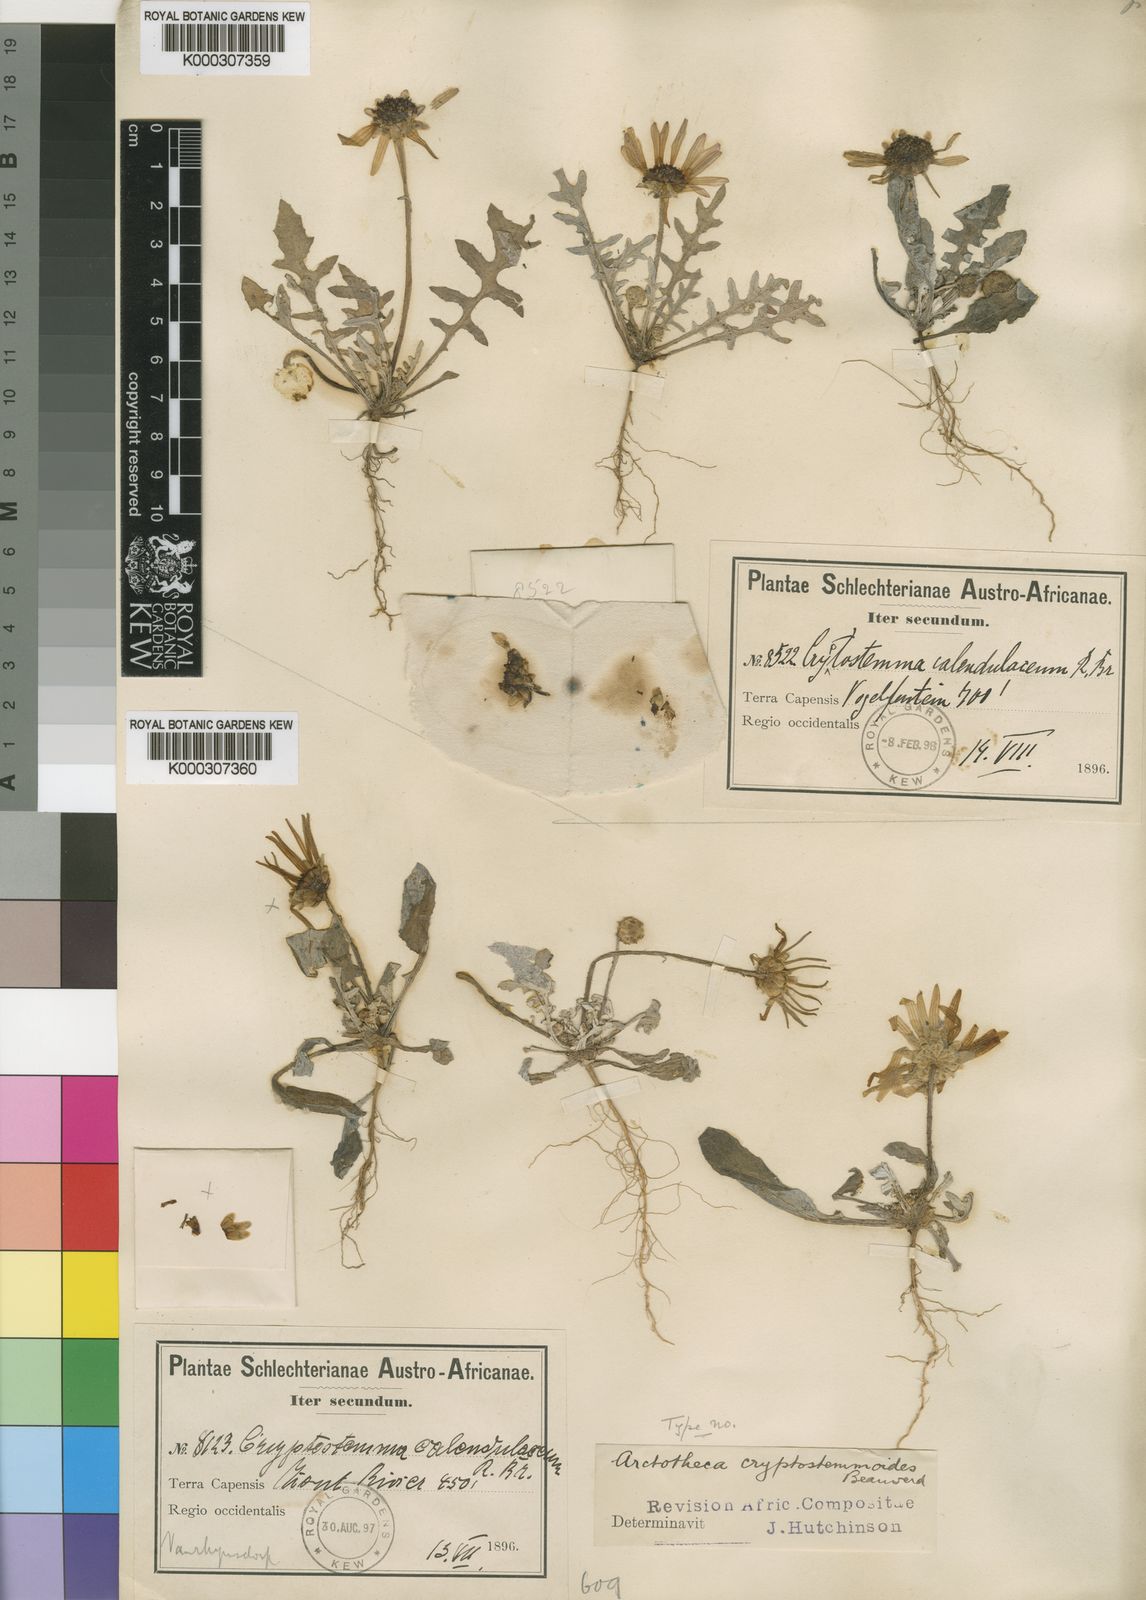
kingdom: Plantae
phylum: Tracheophyta
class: Magnoliopsida
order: Asterales
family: Asteraceae
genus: Arctotheca
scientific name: Arctotheca cryptostemmoides
